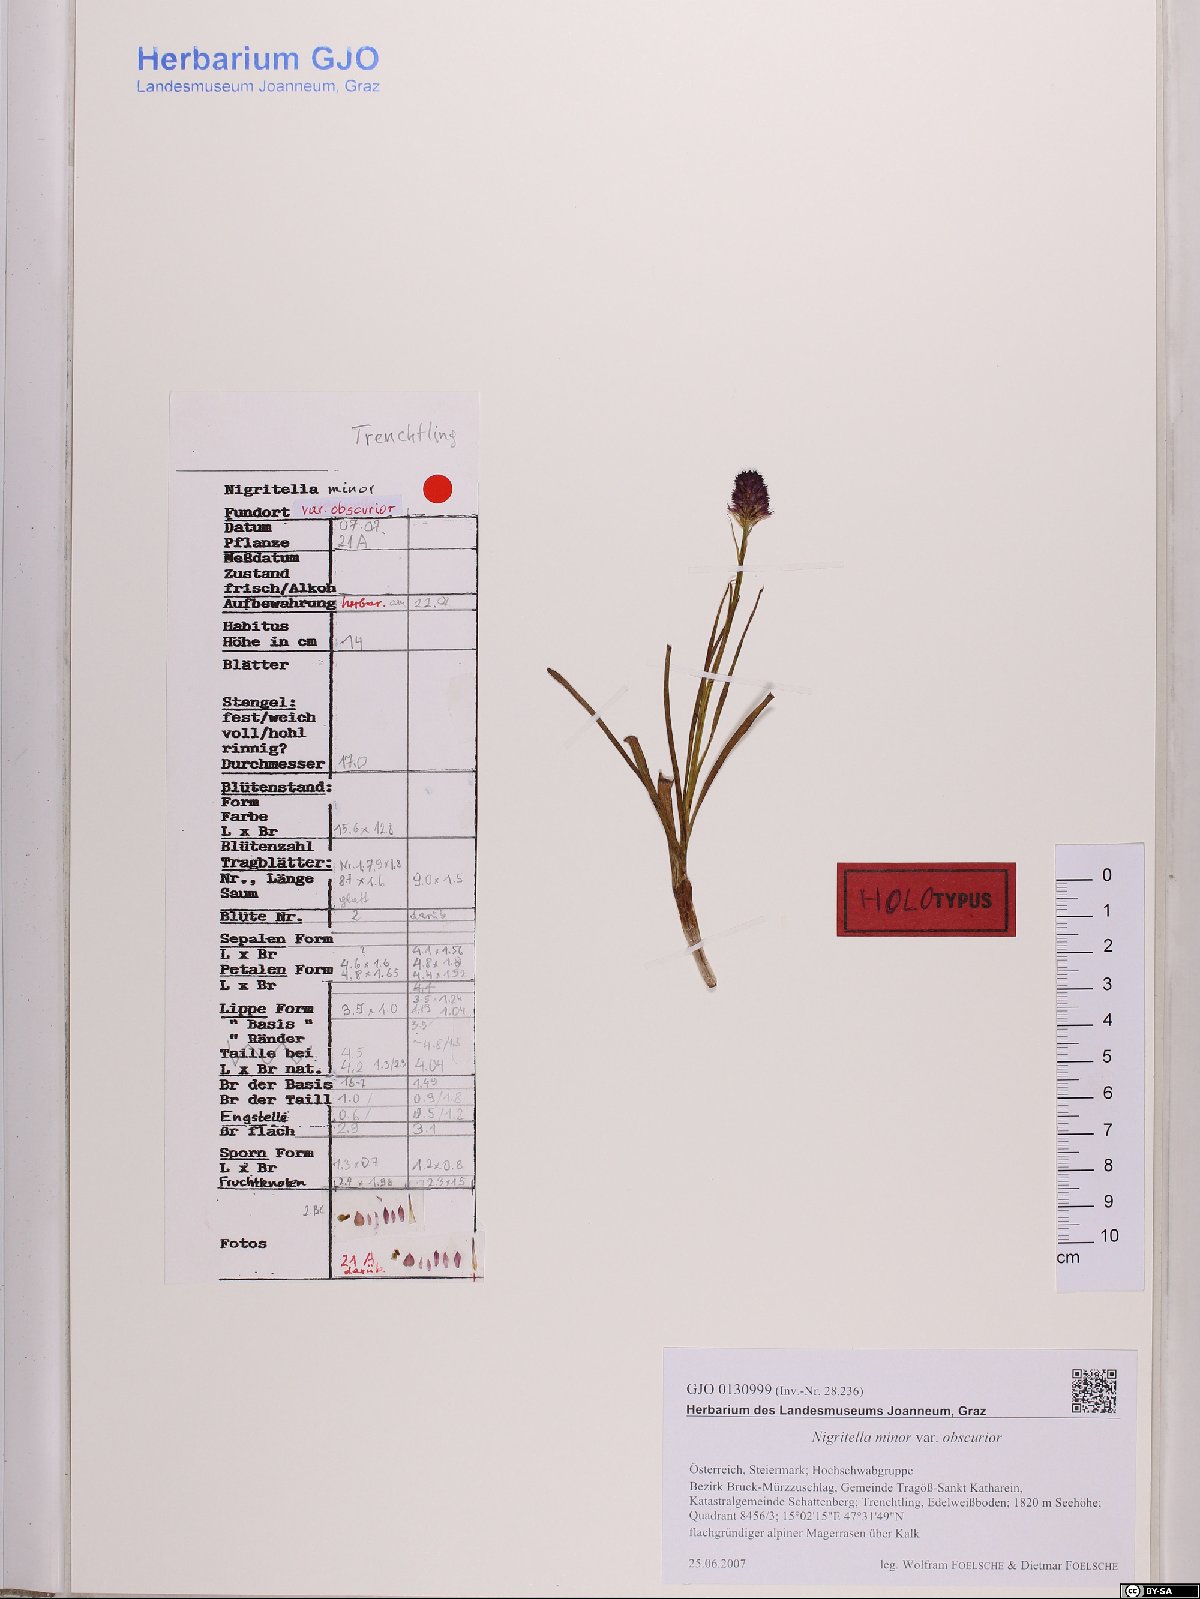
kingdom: Plantae
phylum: Tracheophyta
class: Liliopsida
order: Asparagales
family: Orchidaceae
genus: Gymnadenia
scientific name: Gymnadenia miniata
